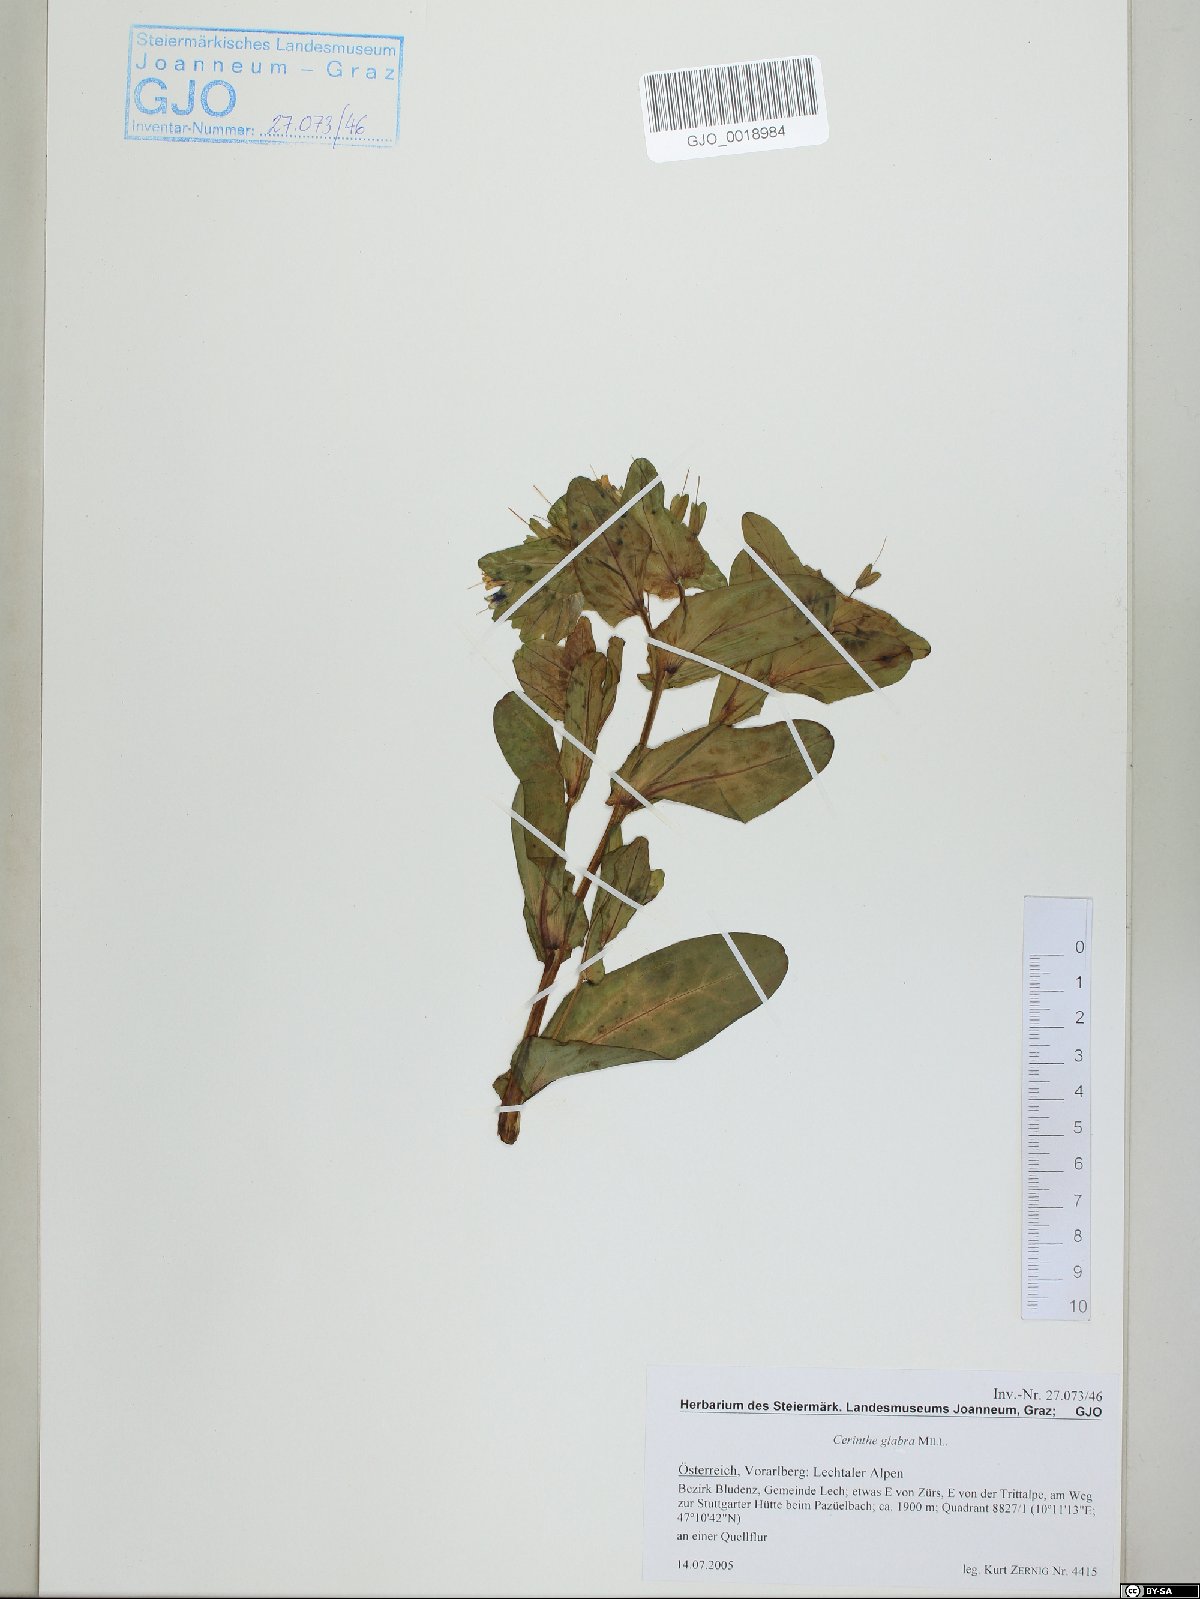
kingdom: Plantae
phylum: Tracheophyta
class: Magnoliopsida
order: Boraginales
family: Boraginaceae
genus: Cerinthe
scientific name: Cerinthe glabra
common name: Smooth honeywort
